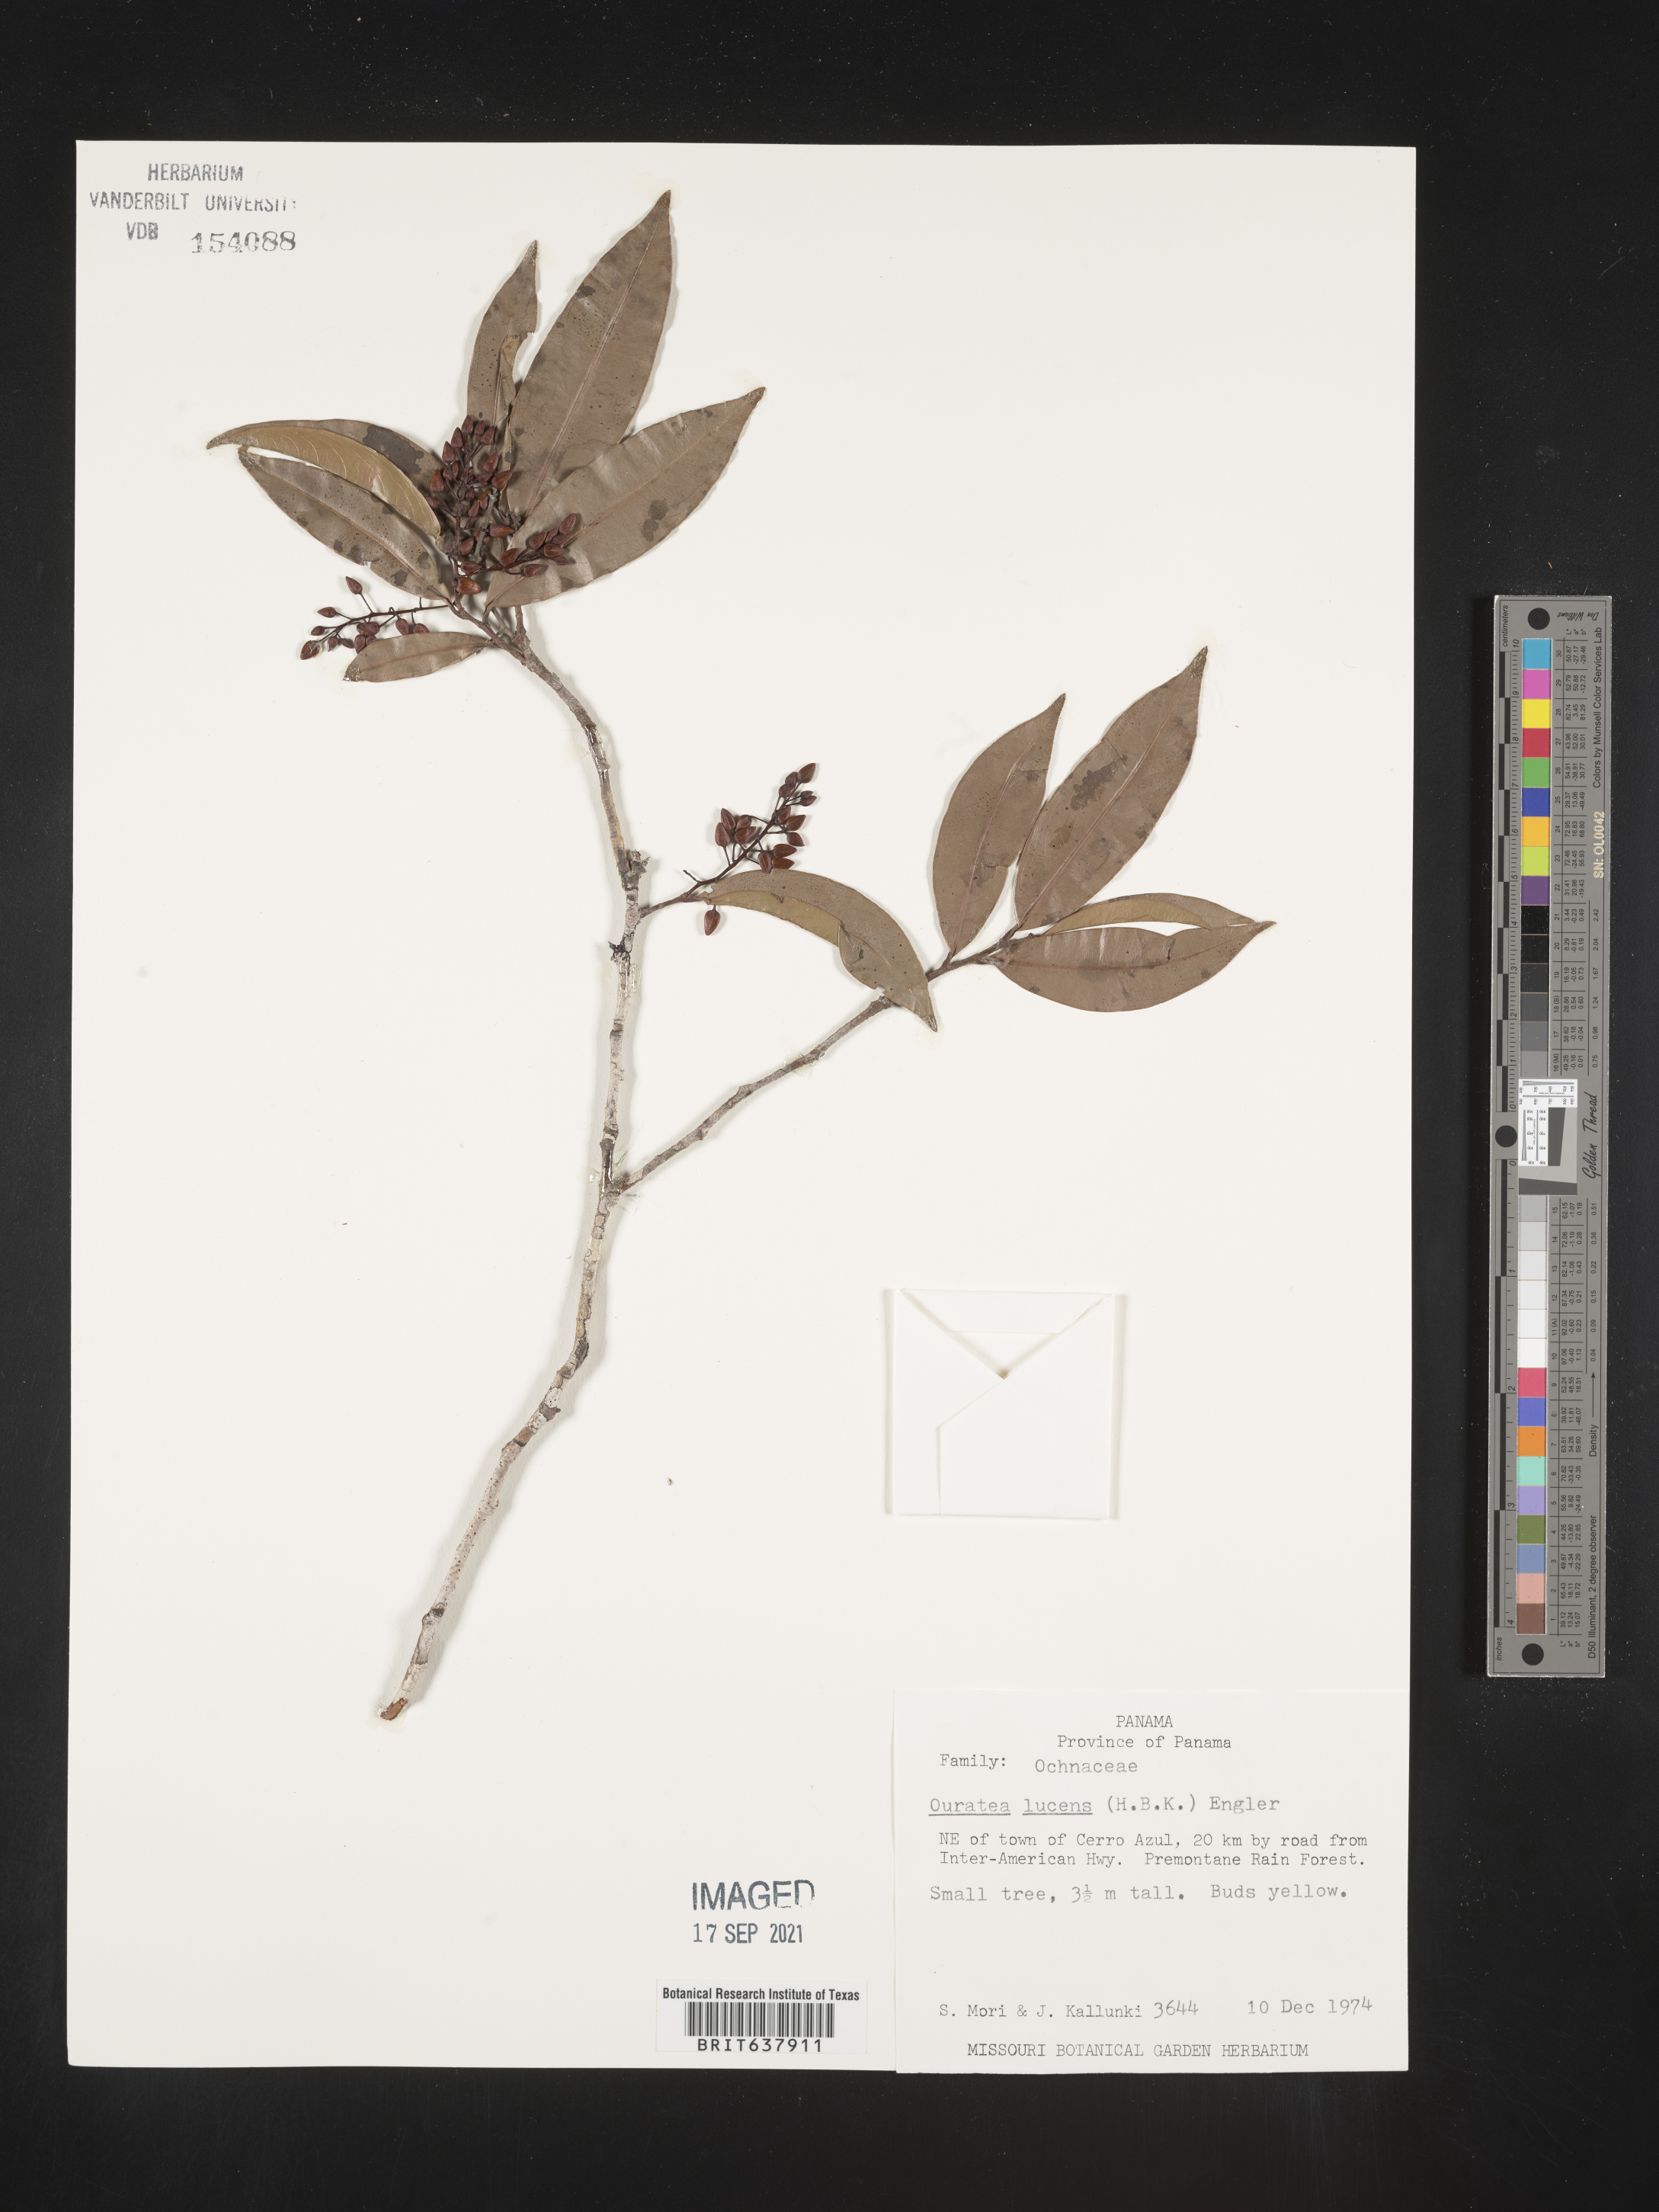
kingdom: Plantae
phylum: Tracheophyta
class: Magnoliopsida
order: Malpighiales
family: Ochnaceae
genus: Ouratea
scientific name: Ouratea
